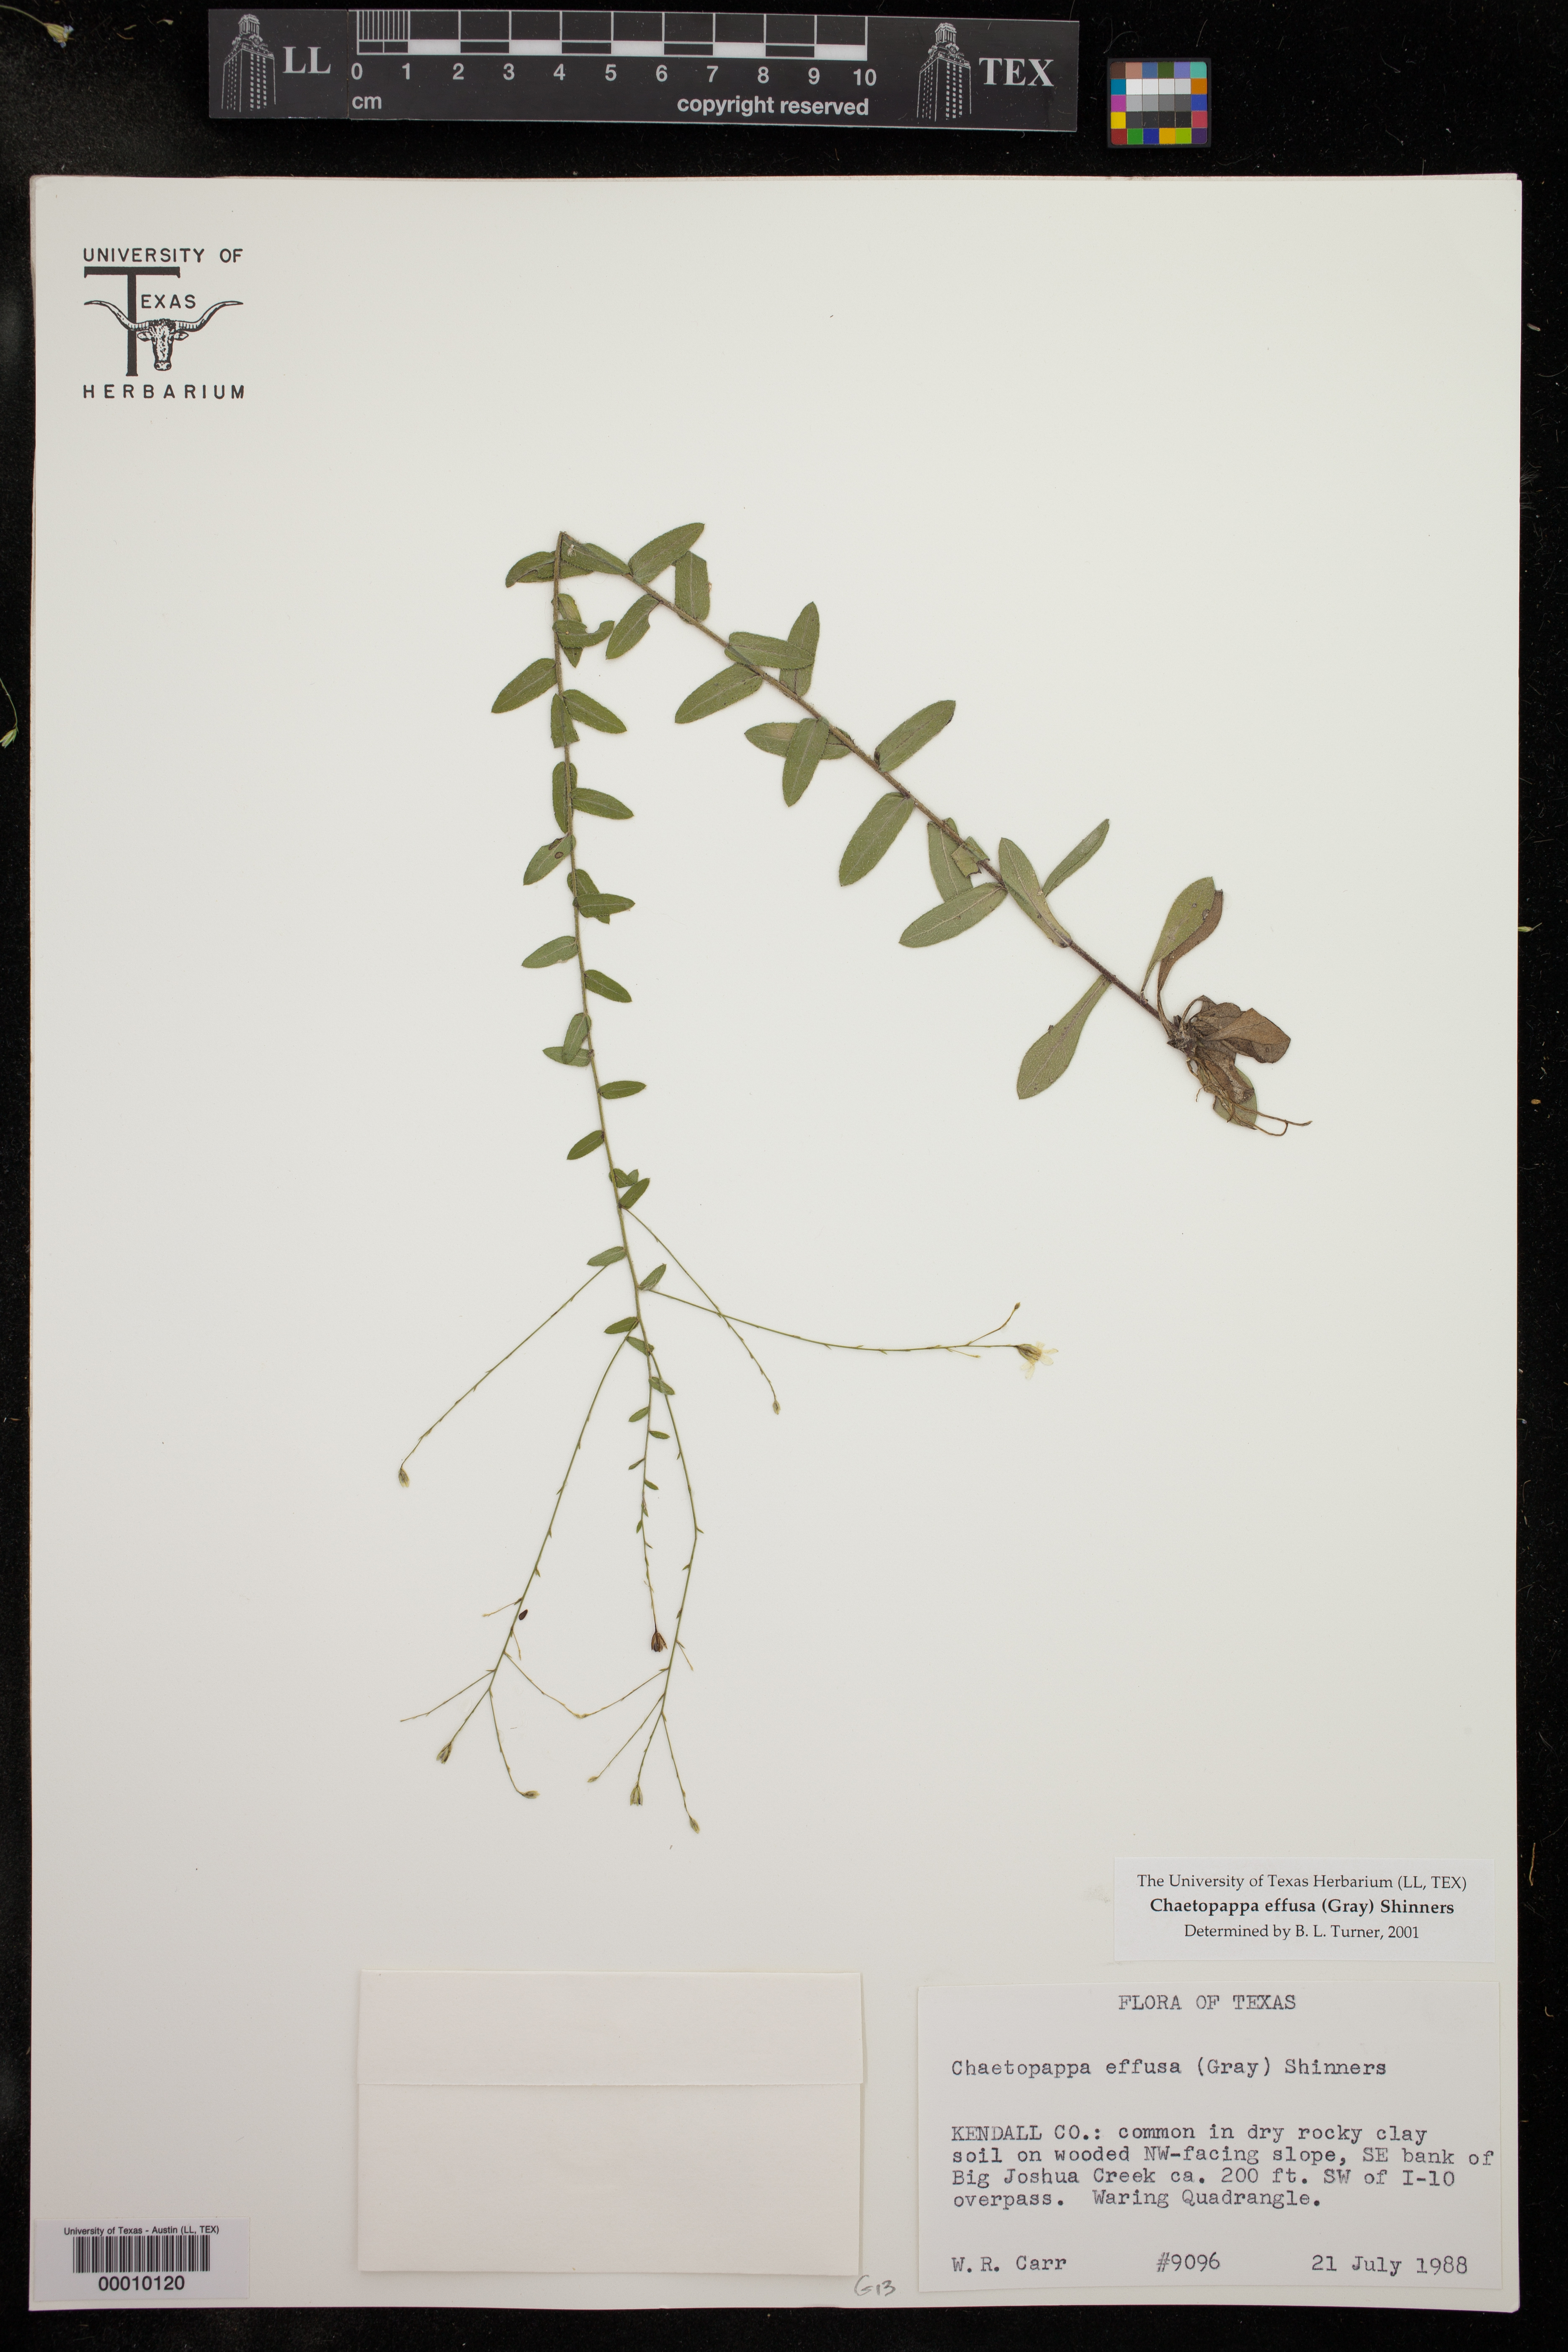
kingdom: Plantae
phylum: Tracheophyta
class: Magnoliopsida
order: Asterales
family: Asteraceae
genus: Chaetopappa
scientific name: Chaetopappa effusa
